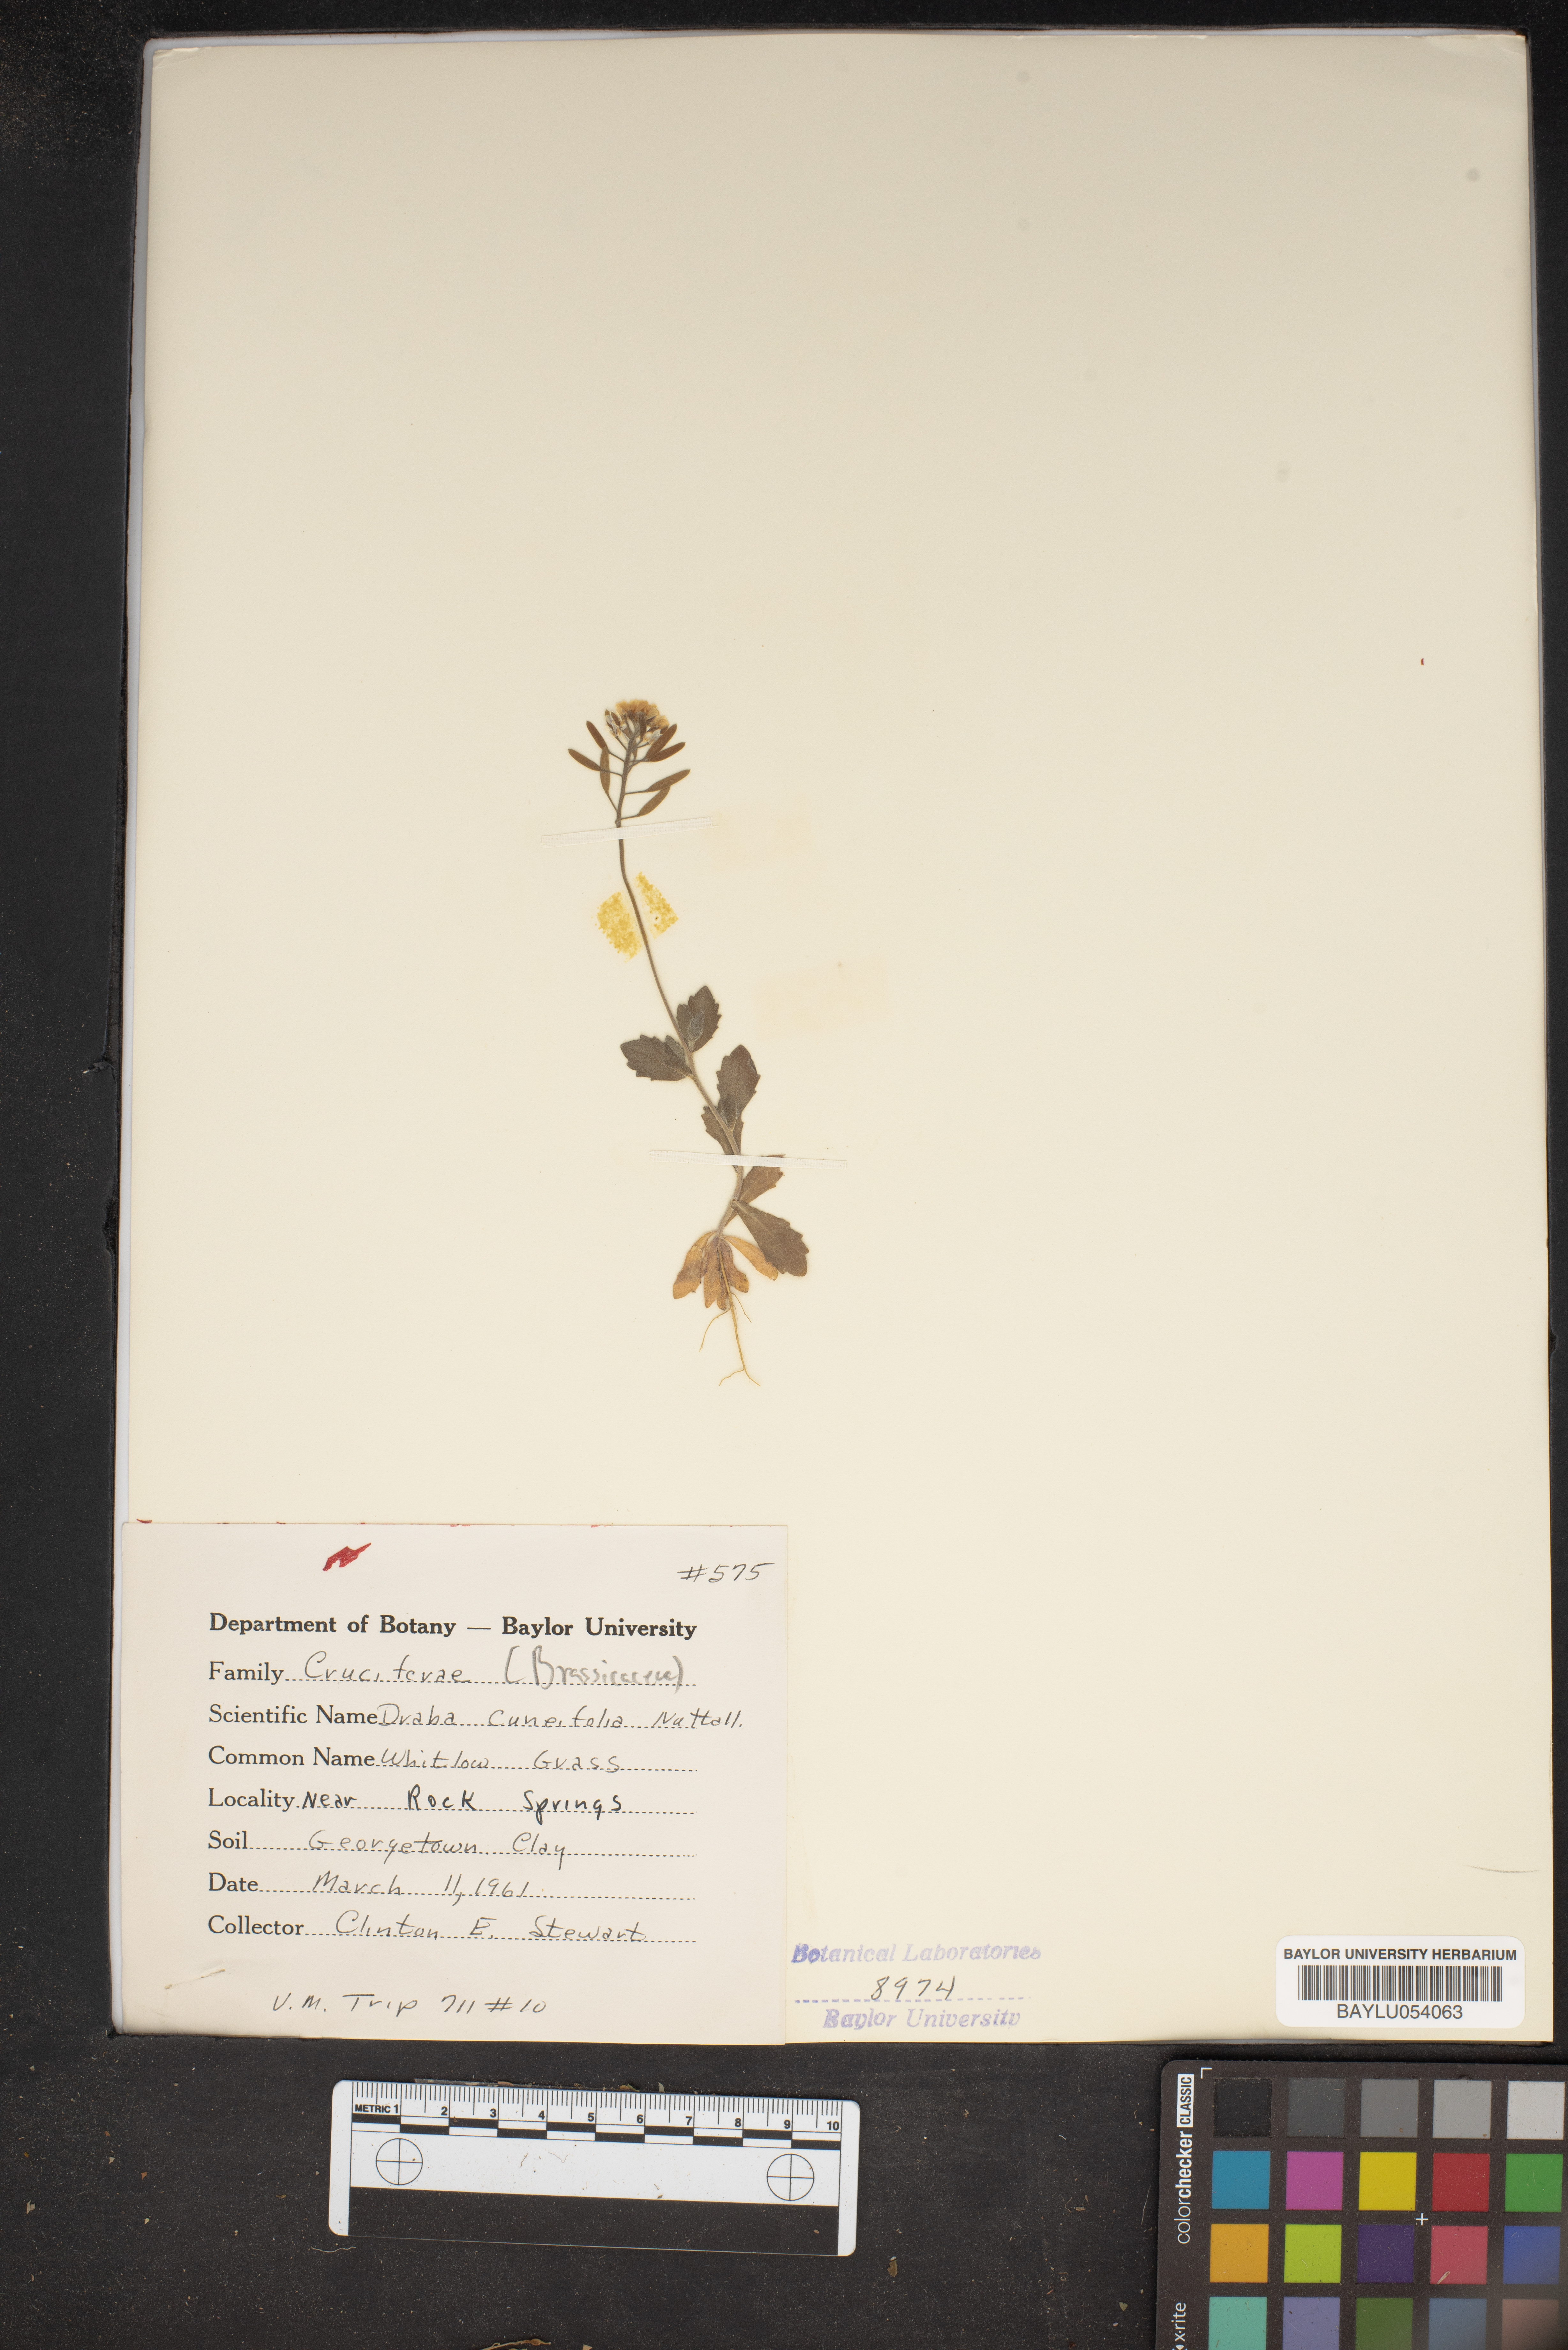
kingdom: Plantae
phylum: Tracheophyta
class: Magnoliopsida
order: Brassicales
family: Brassicaceae
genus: Tomostima
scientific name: Tomostima cuneifolia
